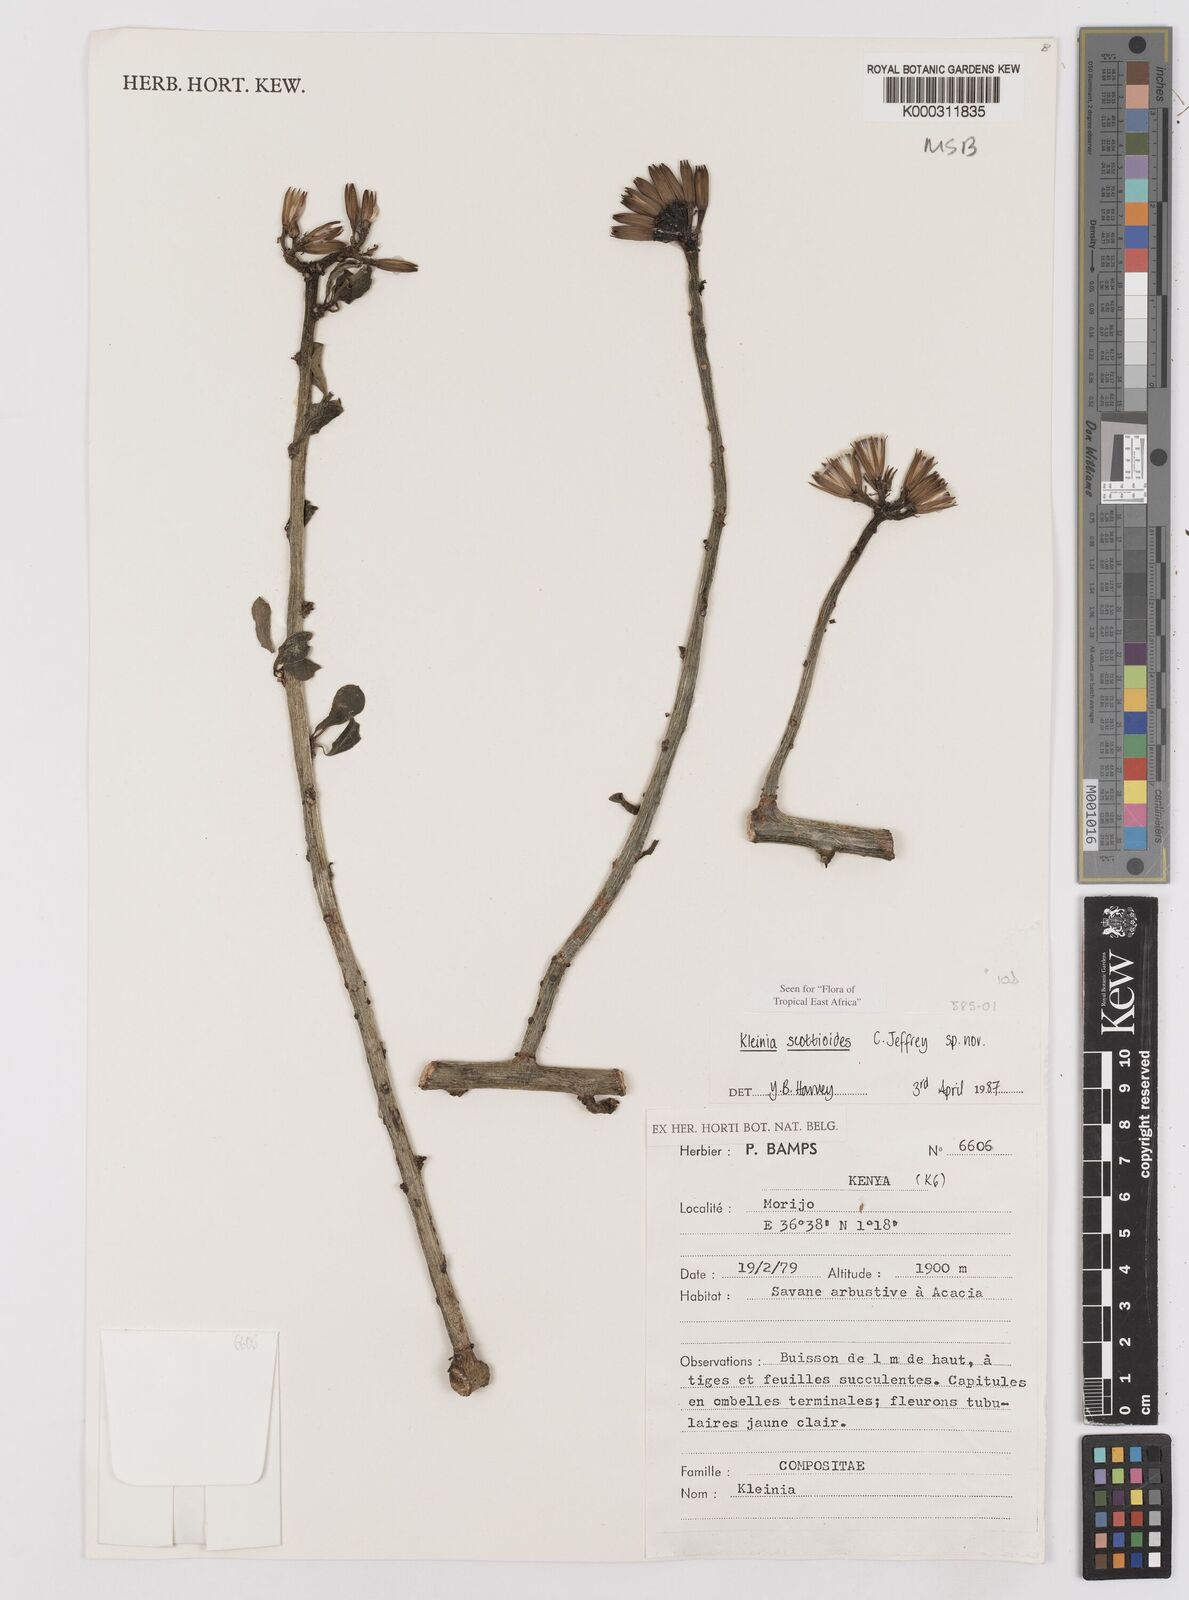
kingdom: Plantae
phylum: Tracheophyta
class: Magnoliopsida
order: Asterales
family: Asteraceae
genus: Curio
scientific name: Curio avasimontanus
